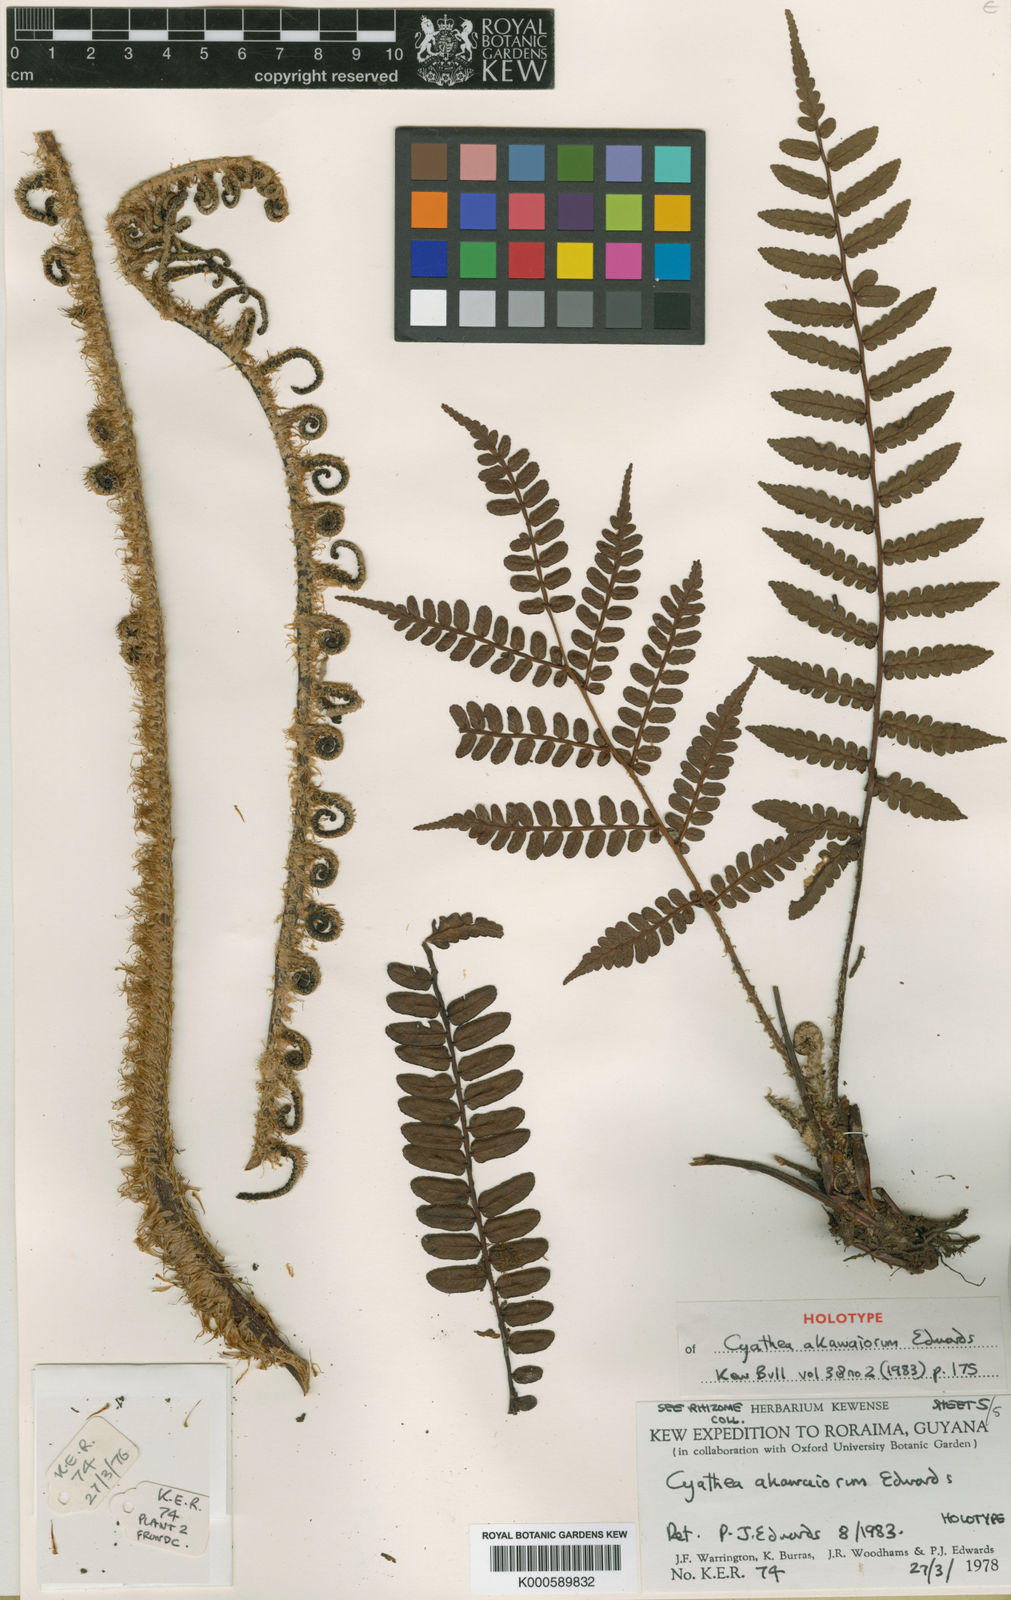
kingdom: Plantae
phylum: Tracheophyta
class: Polypodiopsida
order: Cyatheales
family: Cyatheaceae
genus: Cyathea
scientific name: Cyathea akawaiorum
